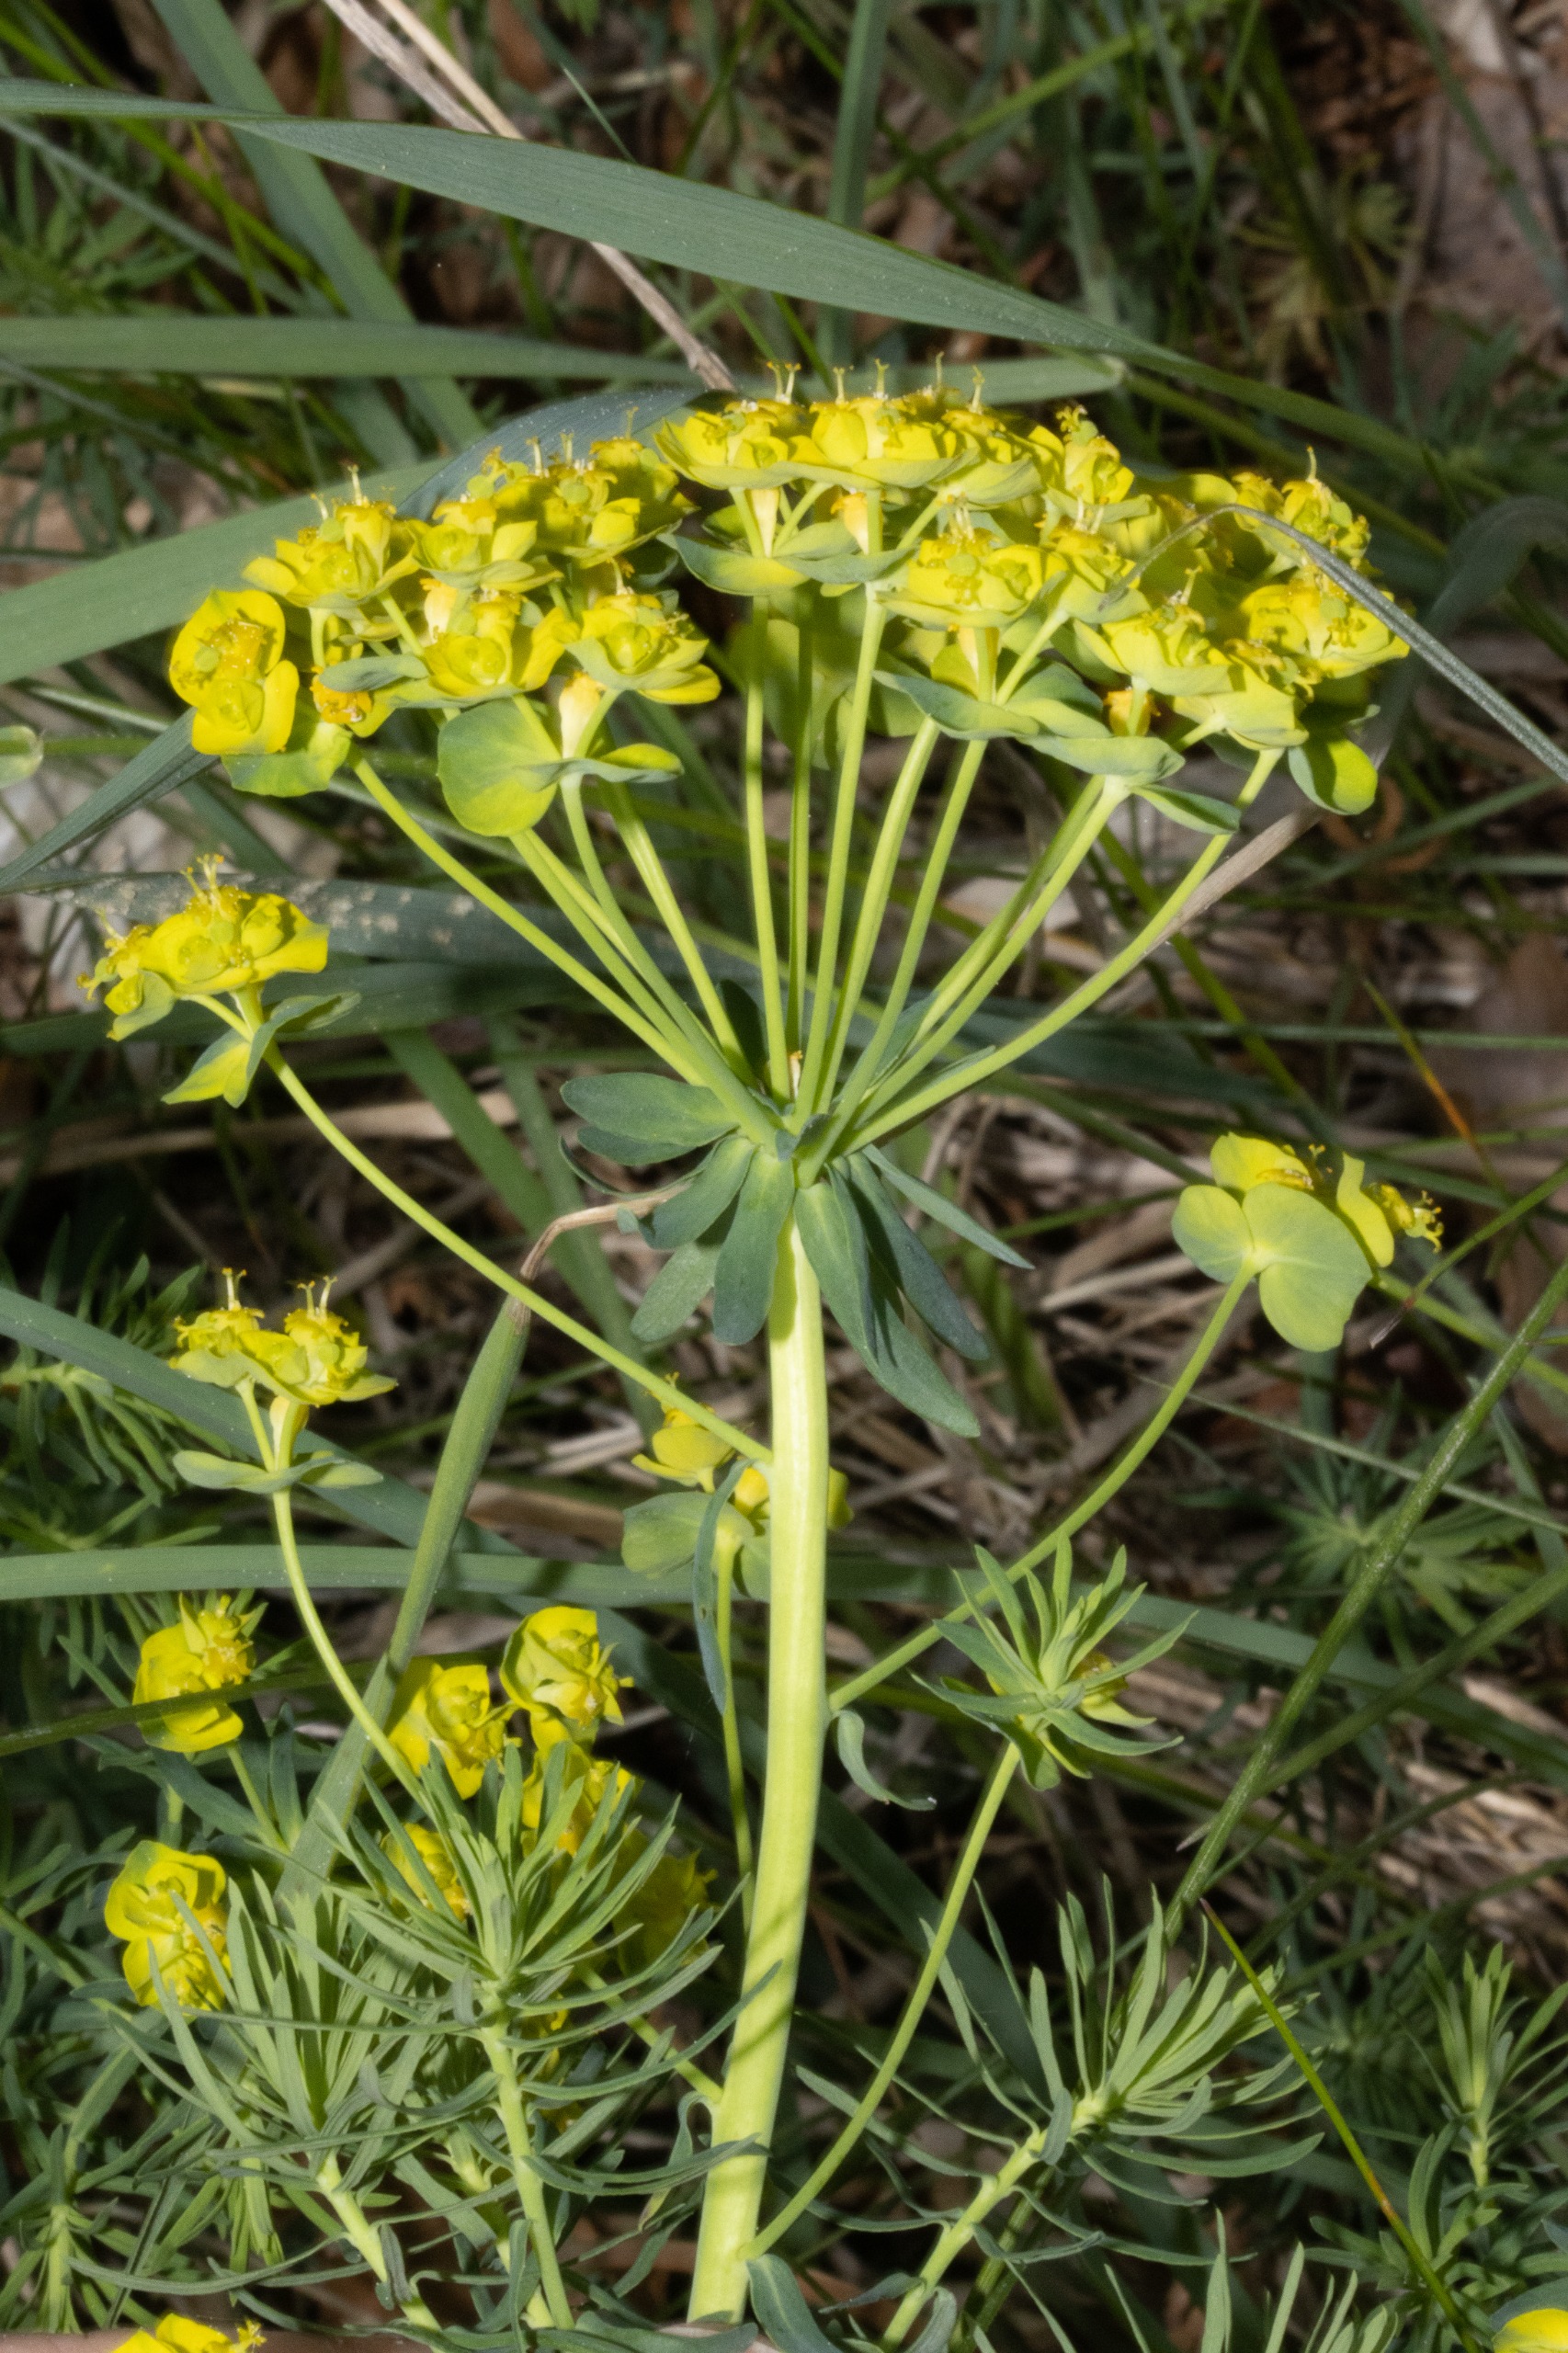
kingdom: Plantae
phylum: Tracheophyta
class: Magnoliopsida
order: Malpighiales
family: Euphorbiaceae
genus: Euphorbia
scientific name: Euphorbia cyparissias
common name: Cypres-vortemælk
